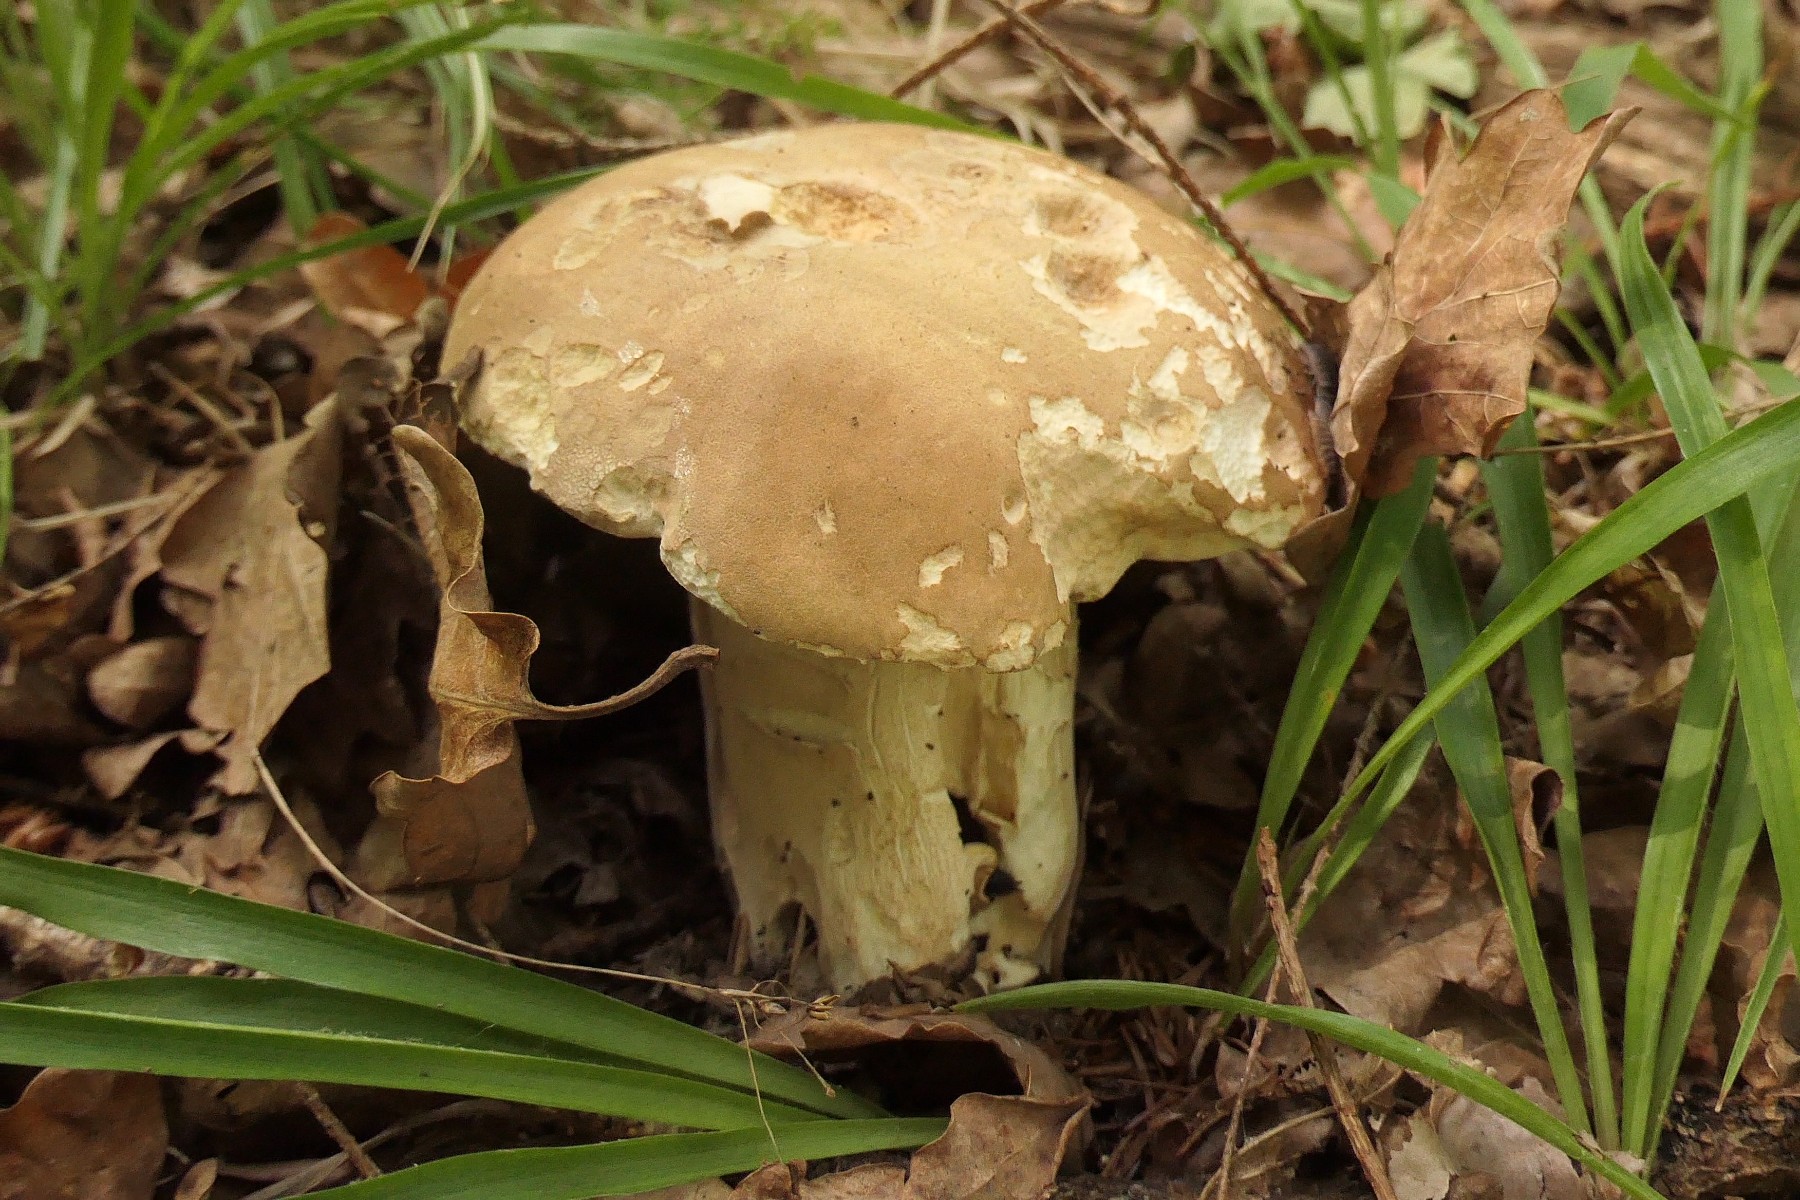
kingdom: Fungi
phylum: Basidiomycota
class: Agaricomycetes
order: Boletales
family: Boletaceae
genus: Boletus
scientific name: Boletus reticulatus
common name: sommer-rørhat
